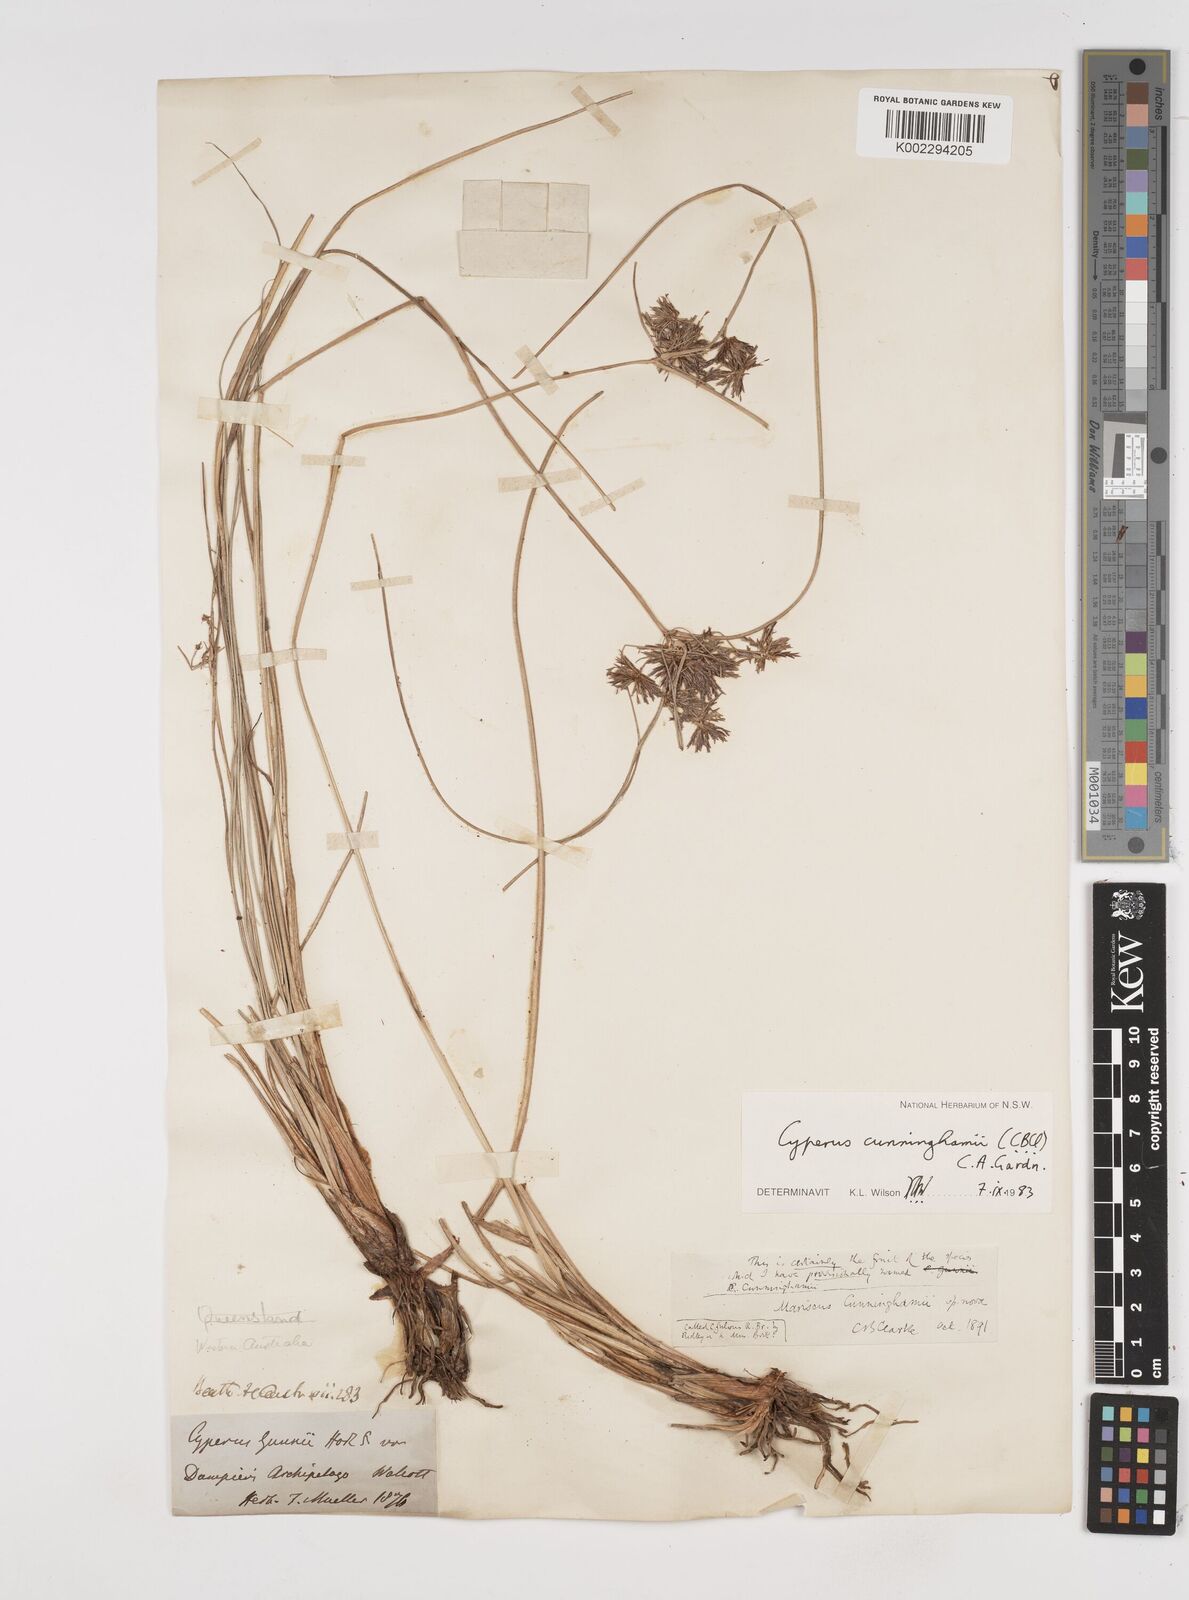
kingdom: Plantae
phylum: Tracheophyta
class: Liliopsida
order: Poales
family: Cyperaceae
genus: Cyperus
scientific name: Cyperus cunninghamii
